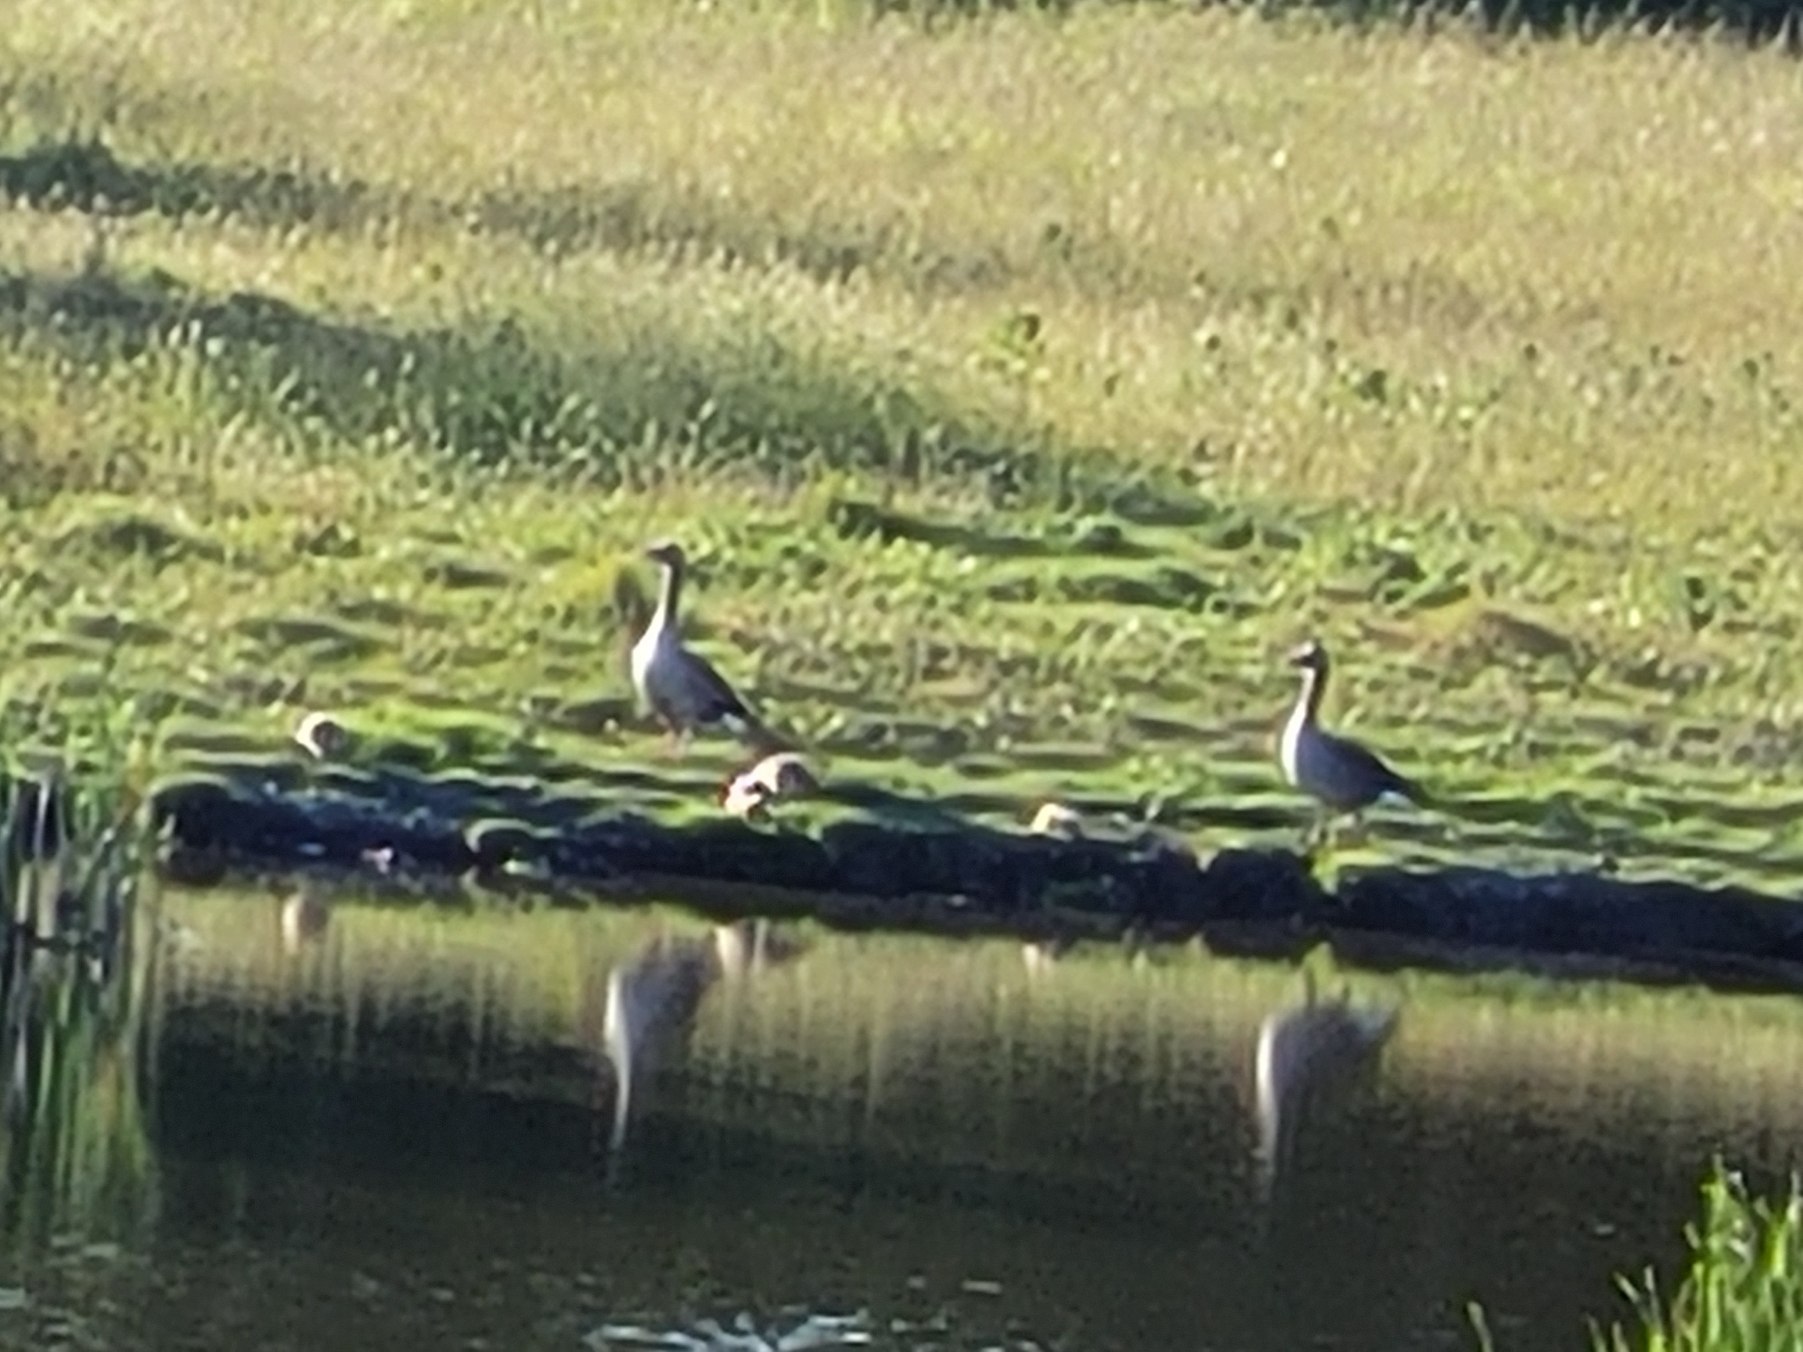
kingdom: Animalia
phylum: Chordata
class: Aves
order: Anseriformes
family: Anatidae
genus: Anser
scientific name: Anser anser
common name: Grågås
